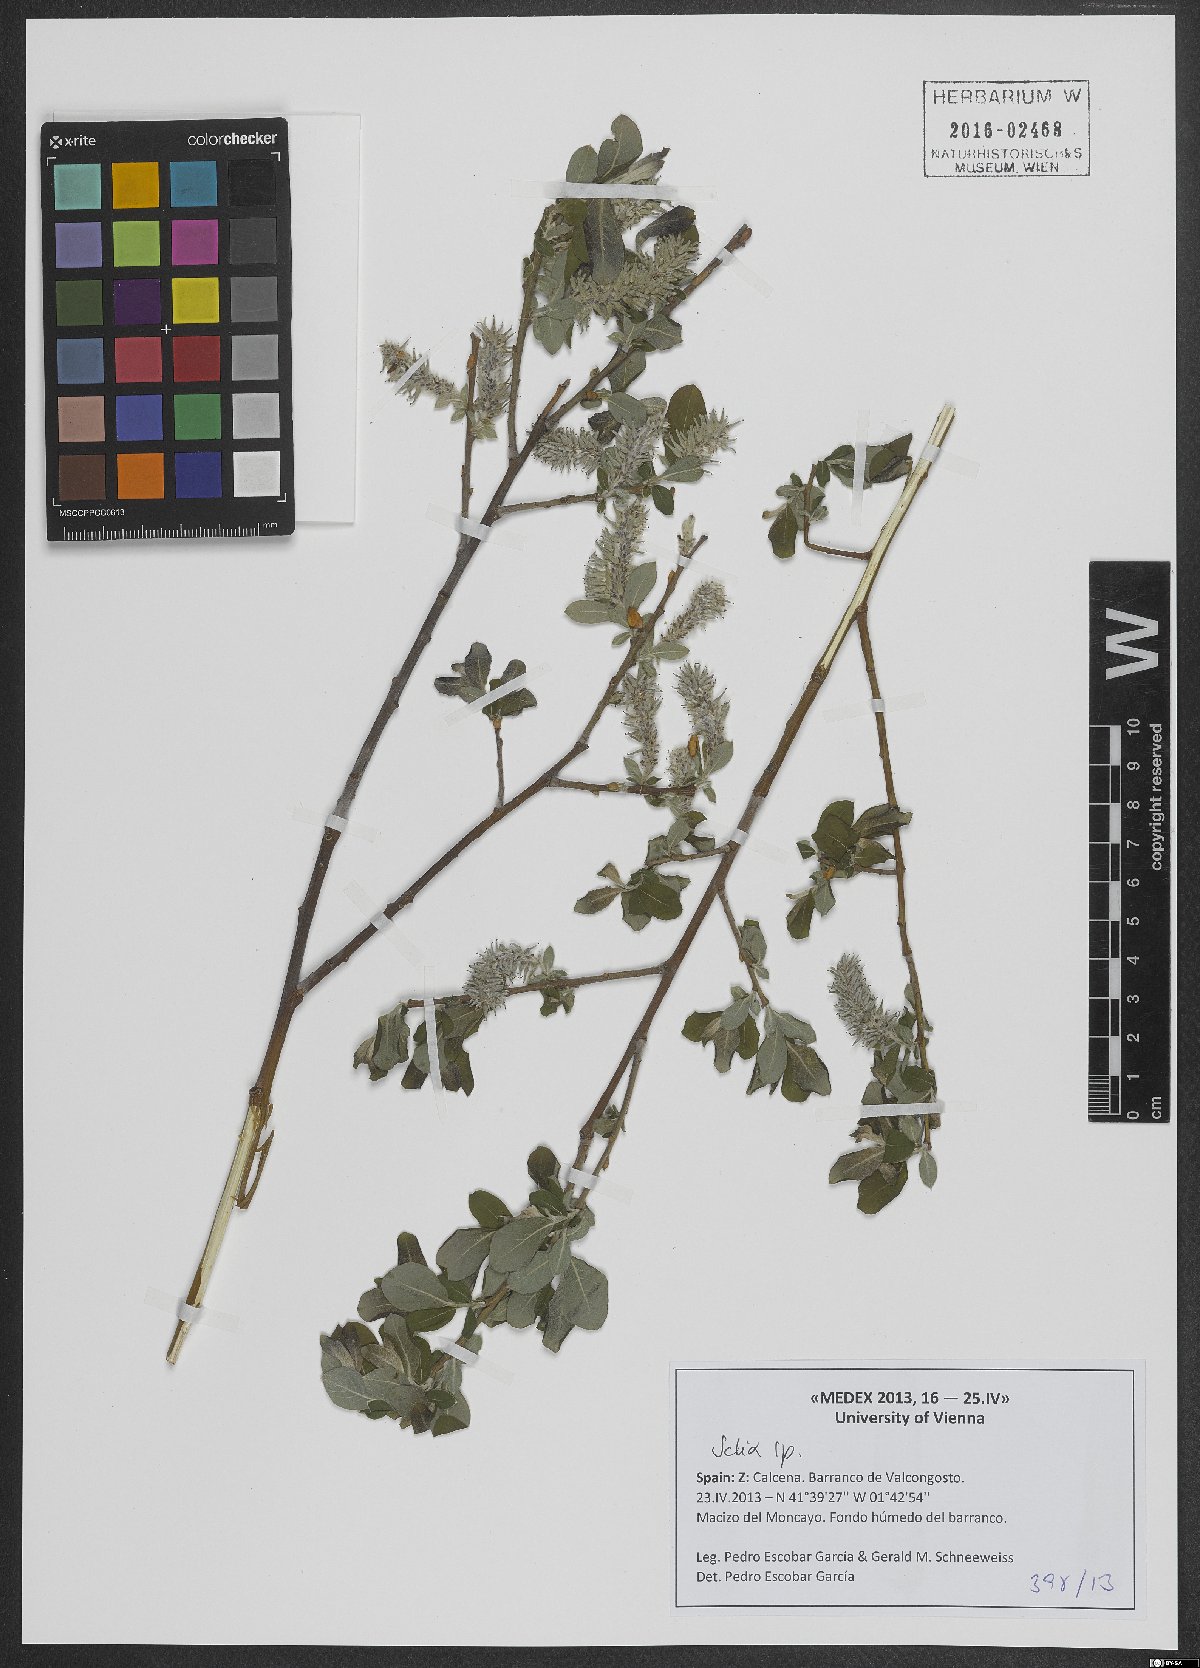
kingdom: Plantae
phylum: Tracheophyta
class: Magnoliopsida
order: Malpighiales
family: Salicaceae
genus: Salix
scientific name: Salix
